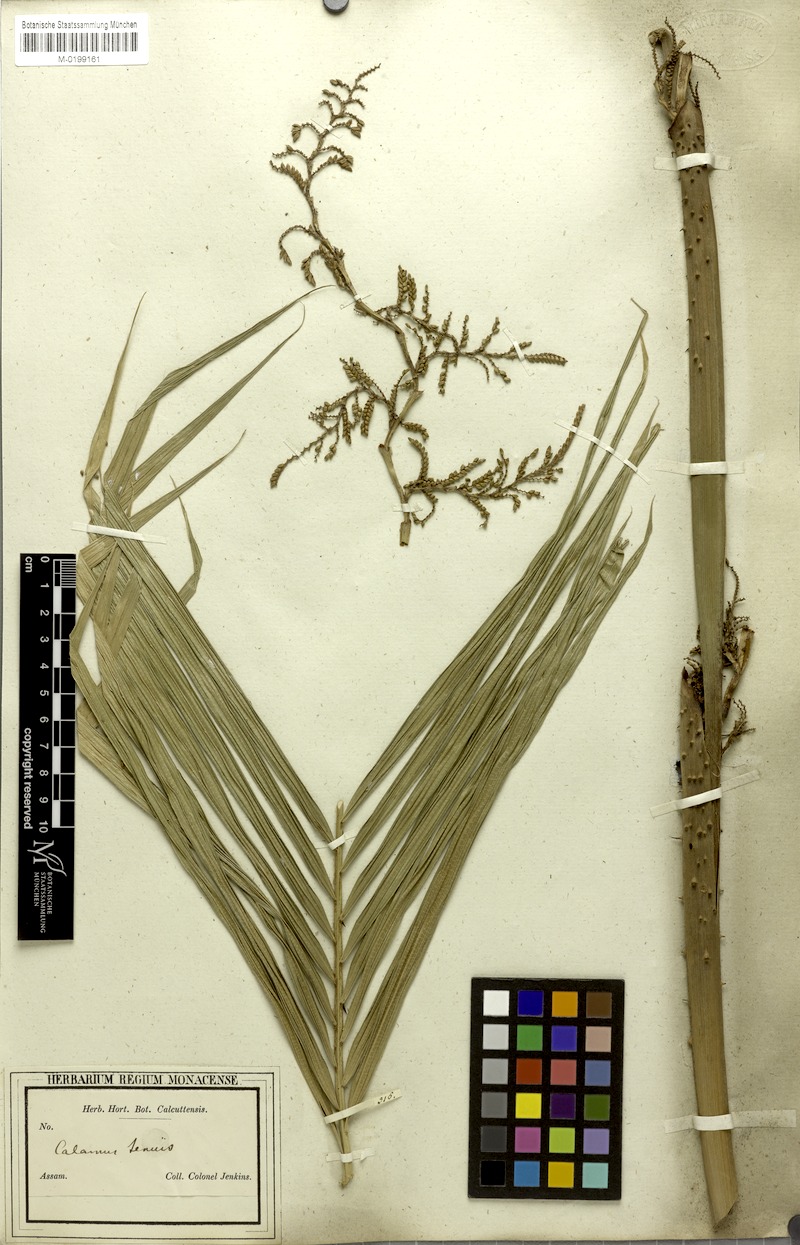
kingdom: Plantae
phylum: Tracheophyta
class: Liliopsida
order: Arecales
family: Arecaceae
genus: Calamus
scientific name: Calamus tenuis
